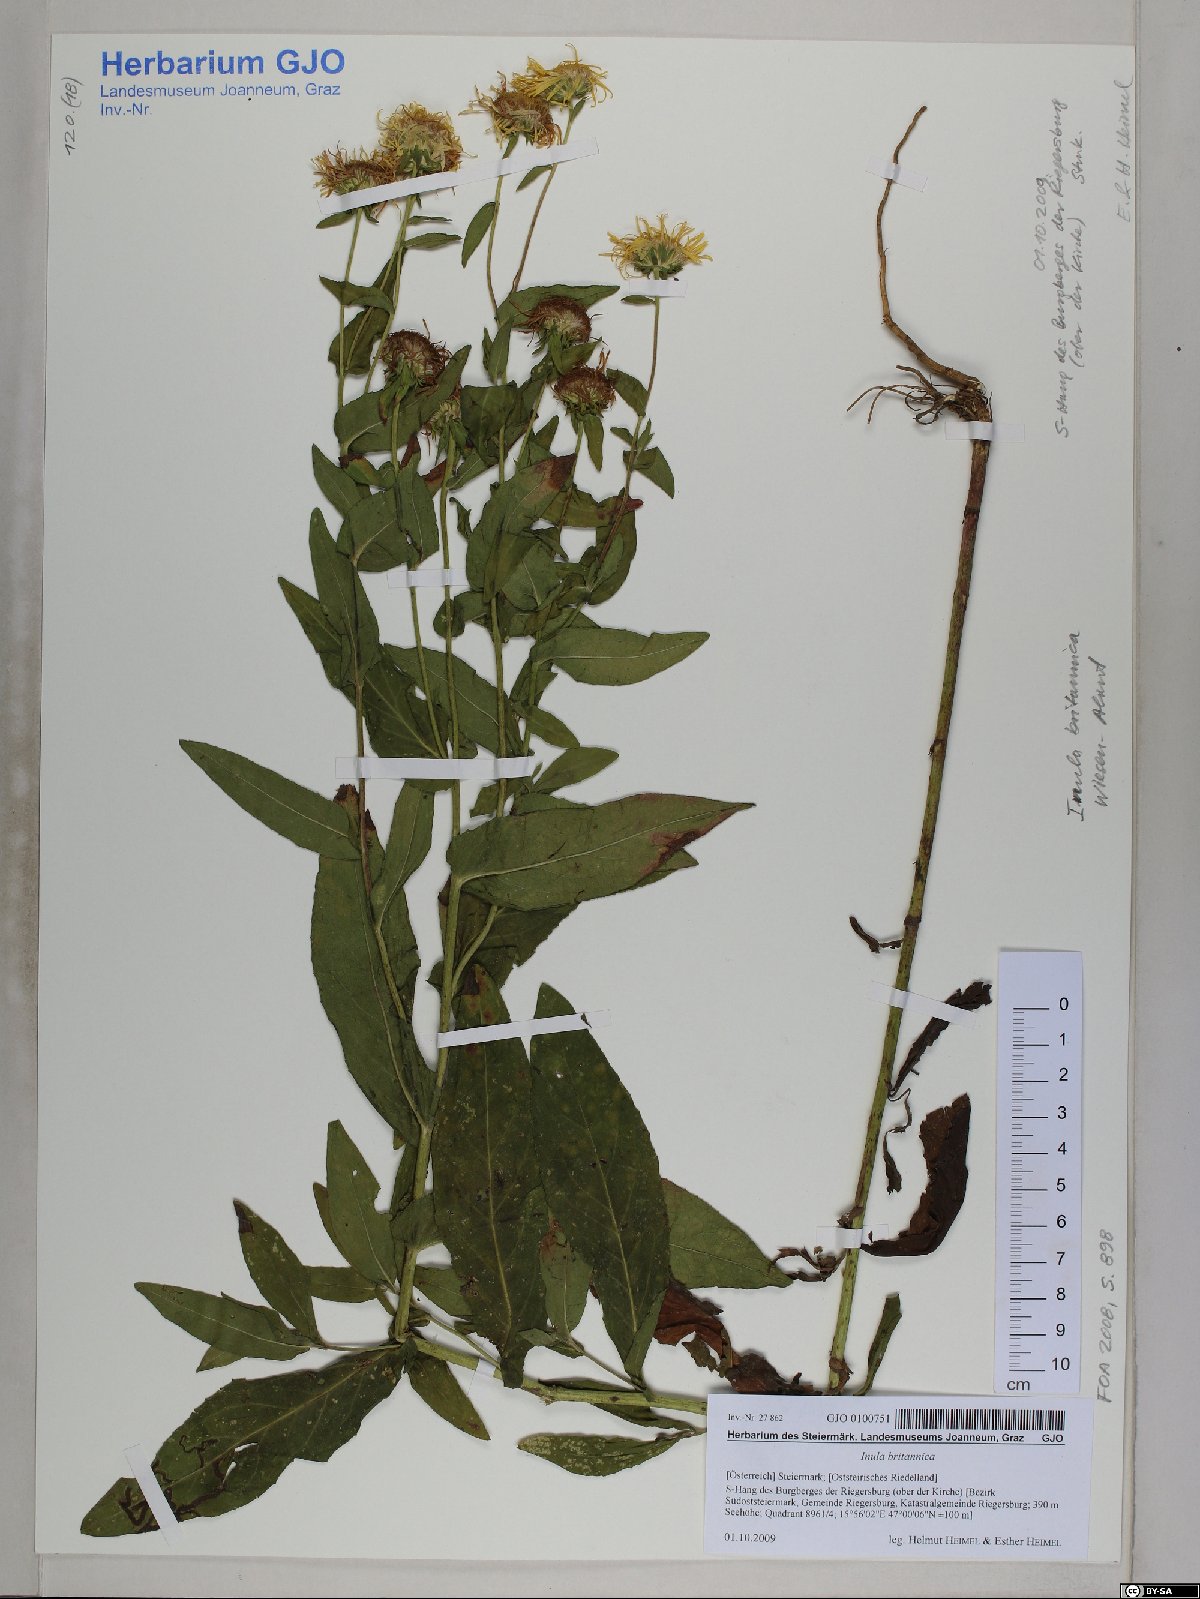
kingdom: Plantae
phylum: Tracheophyta
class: Magnoliopsida
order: Asterales
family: Asteraceae
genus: Pentanema
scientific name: Pentanema britannicum
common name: British elecampane
